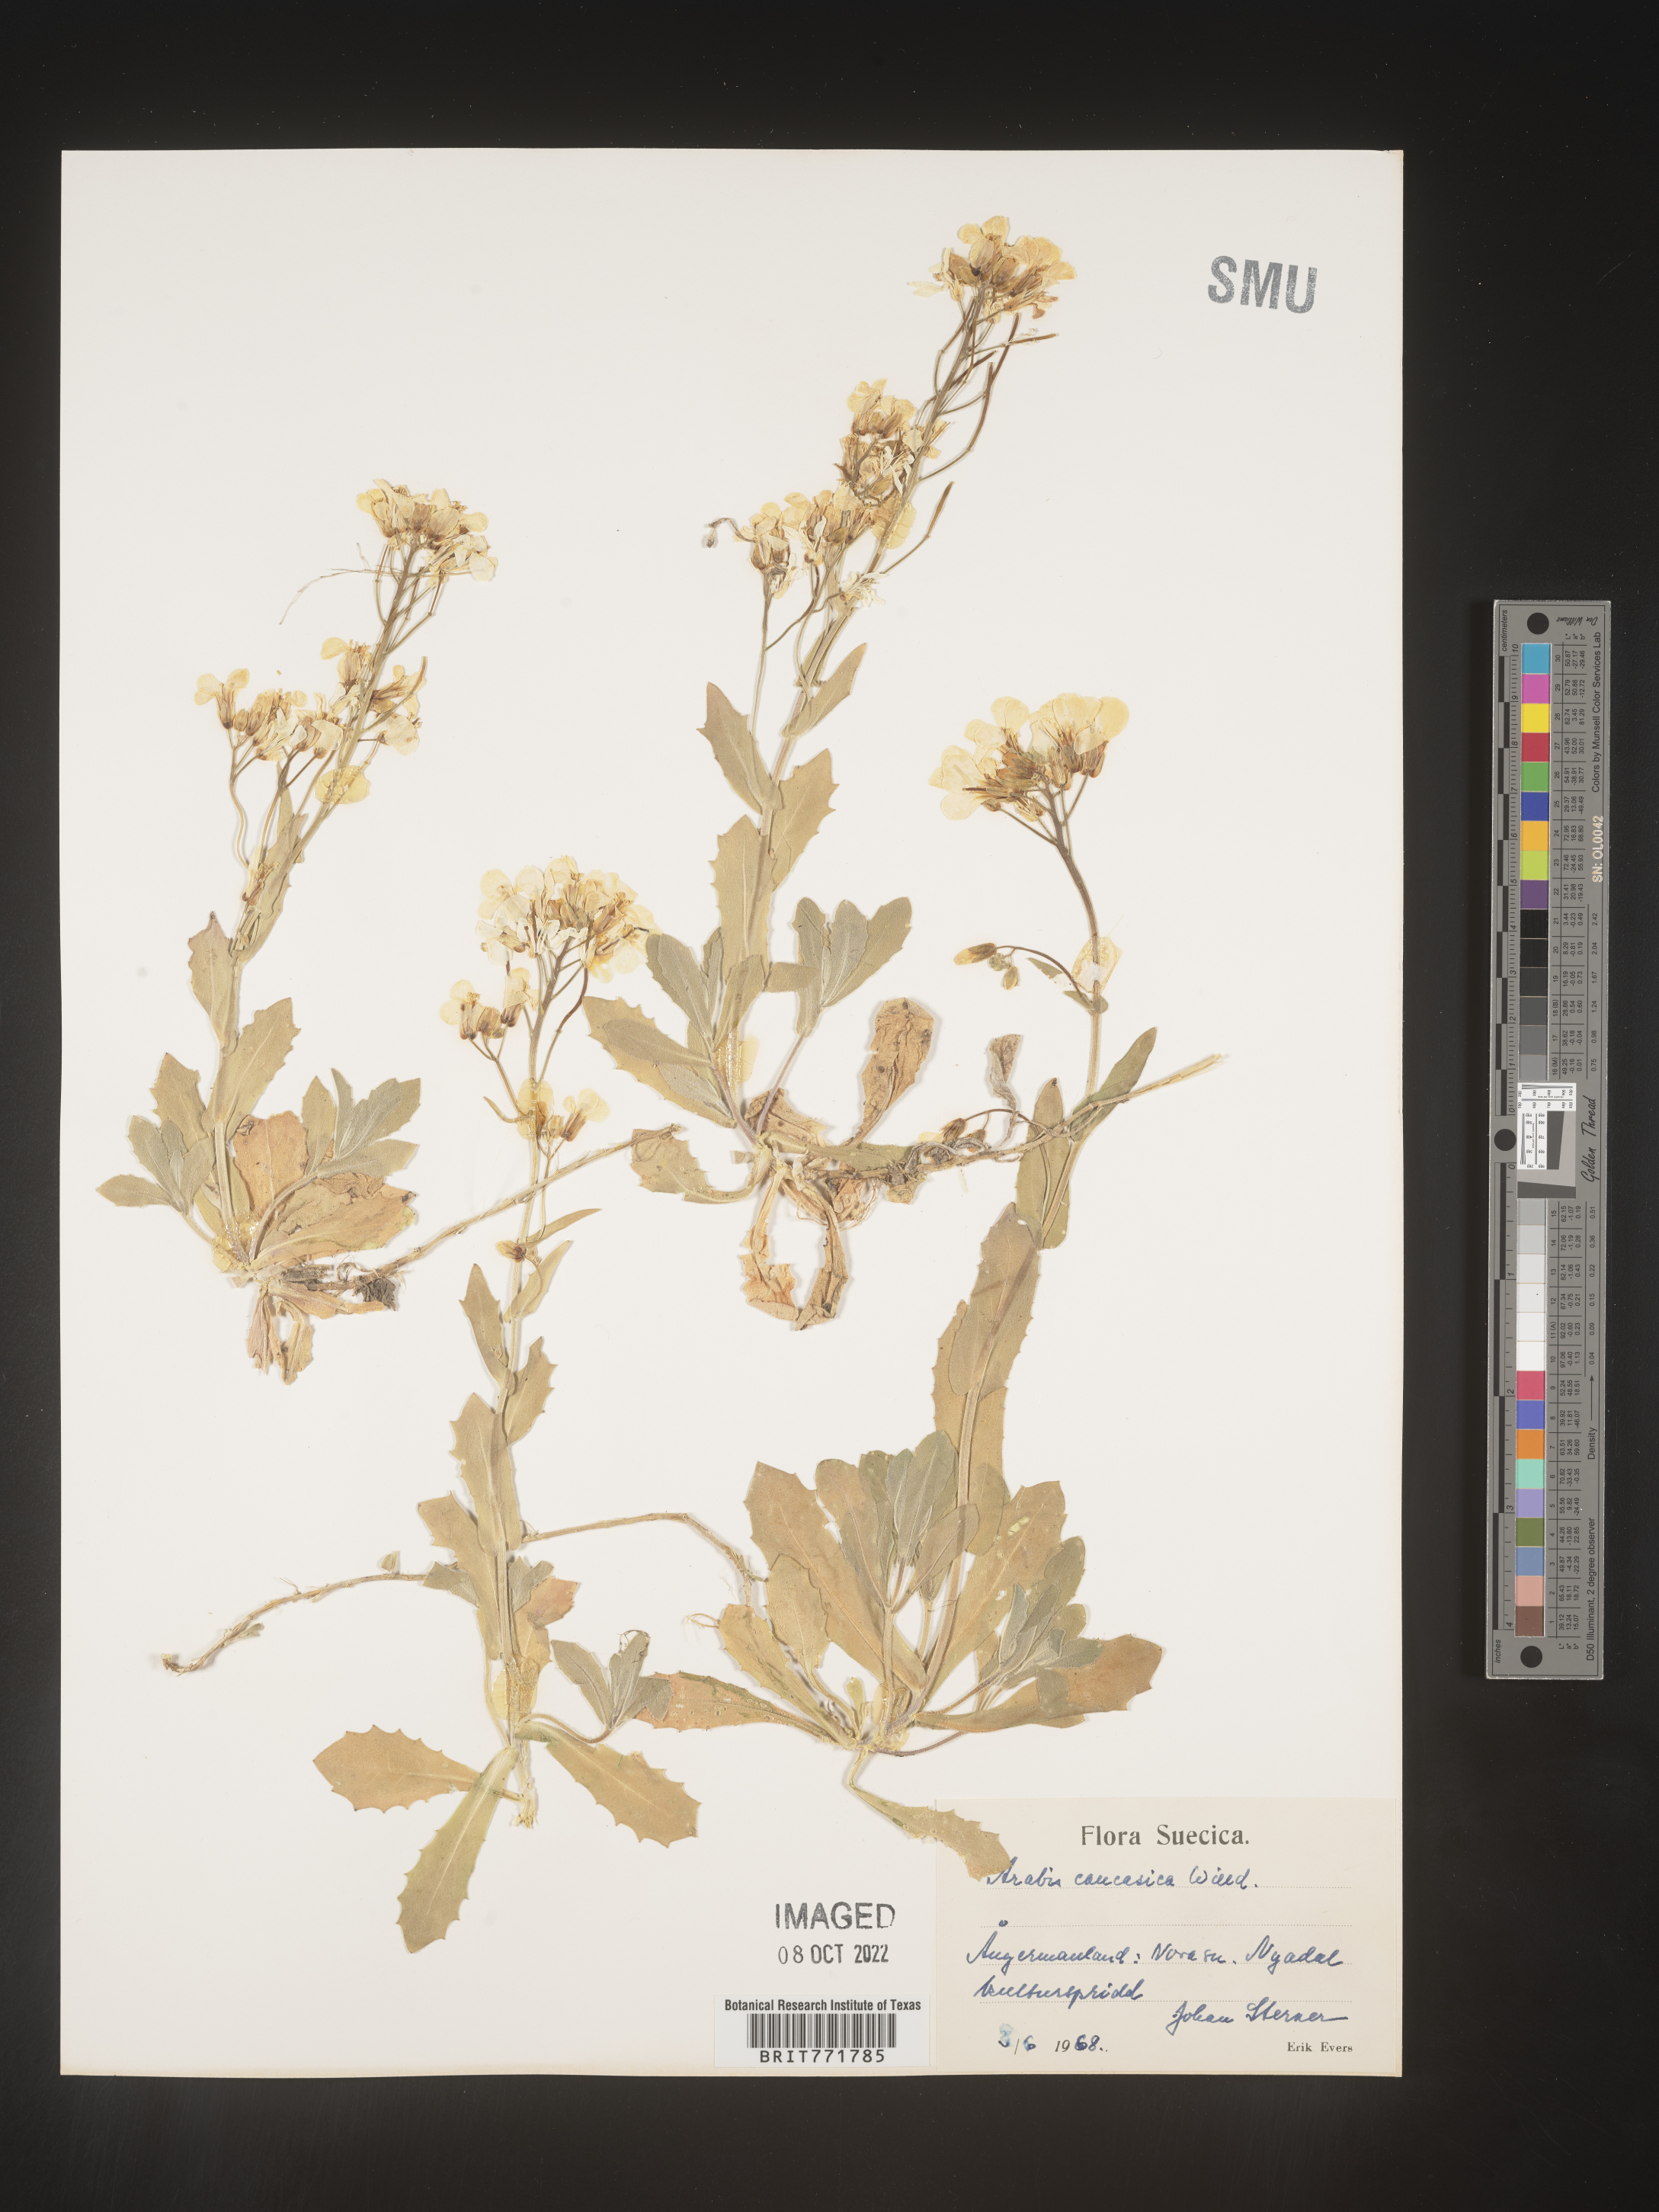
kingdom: Plantae
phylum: Tracheophyta
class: Magnoliopsida
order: Brassicales
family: Brassicaceae
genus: Arabis
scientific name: Arabis
